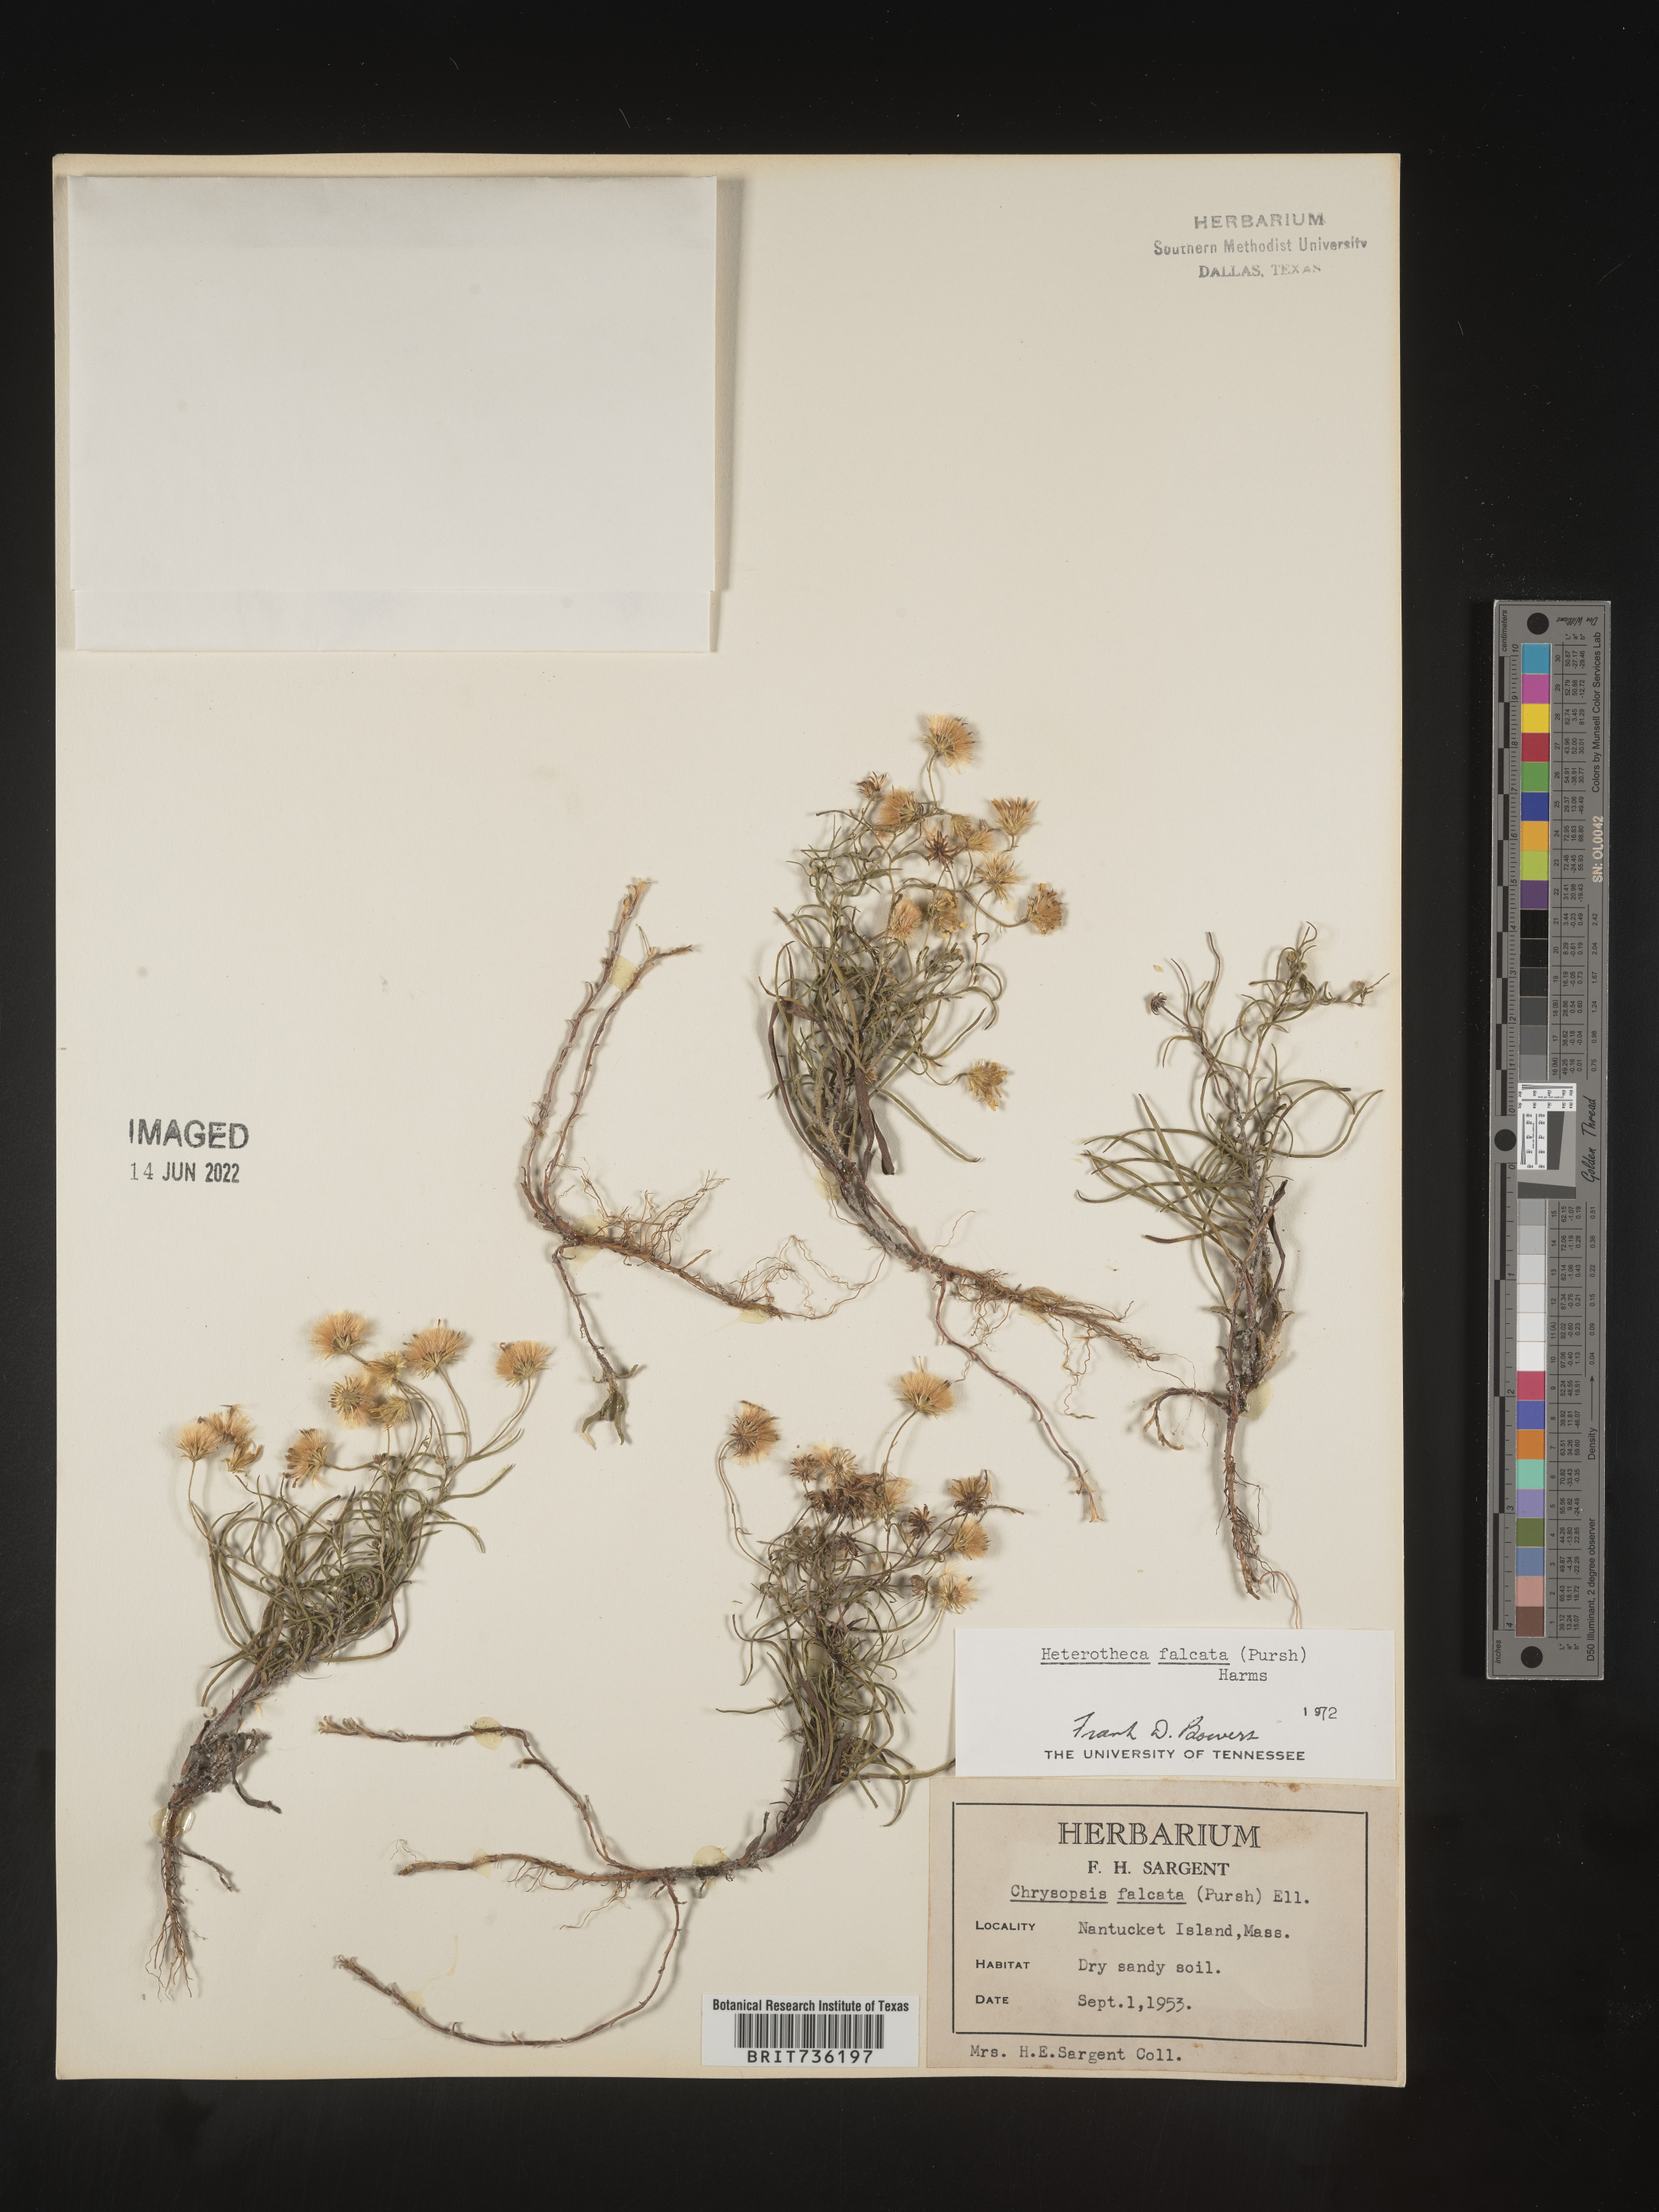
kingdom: Plantae
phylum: Tracheophyta
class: Magnoliopsida
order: Asterales
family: Asteraceae
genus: Pityopsis
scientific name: Pityopsis falcata
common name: Sickle-leaved goldenaster
